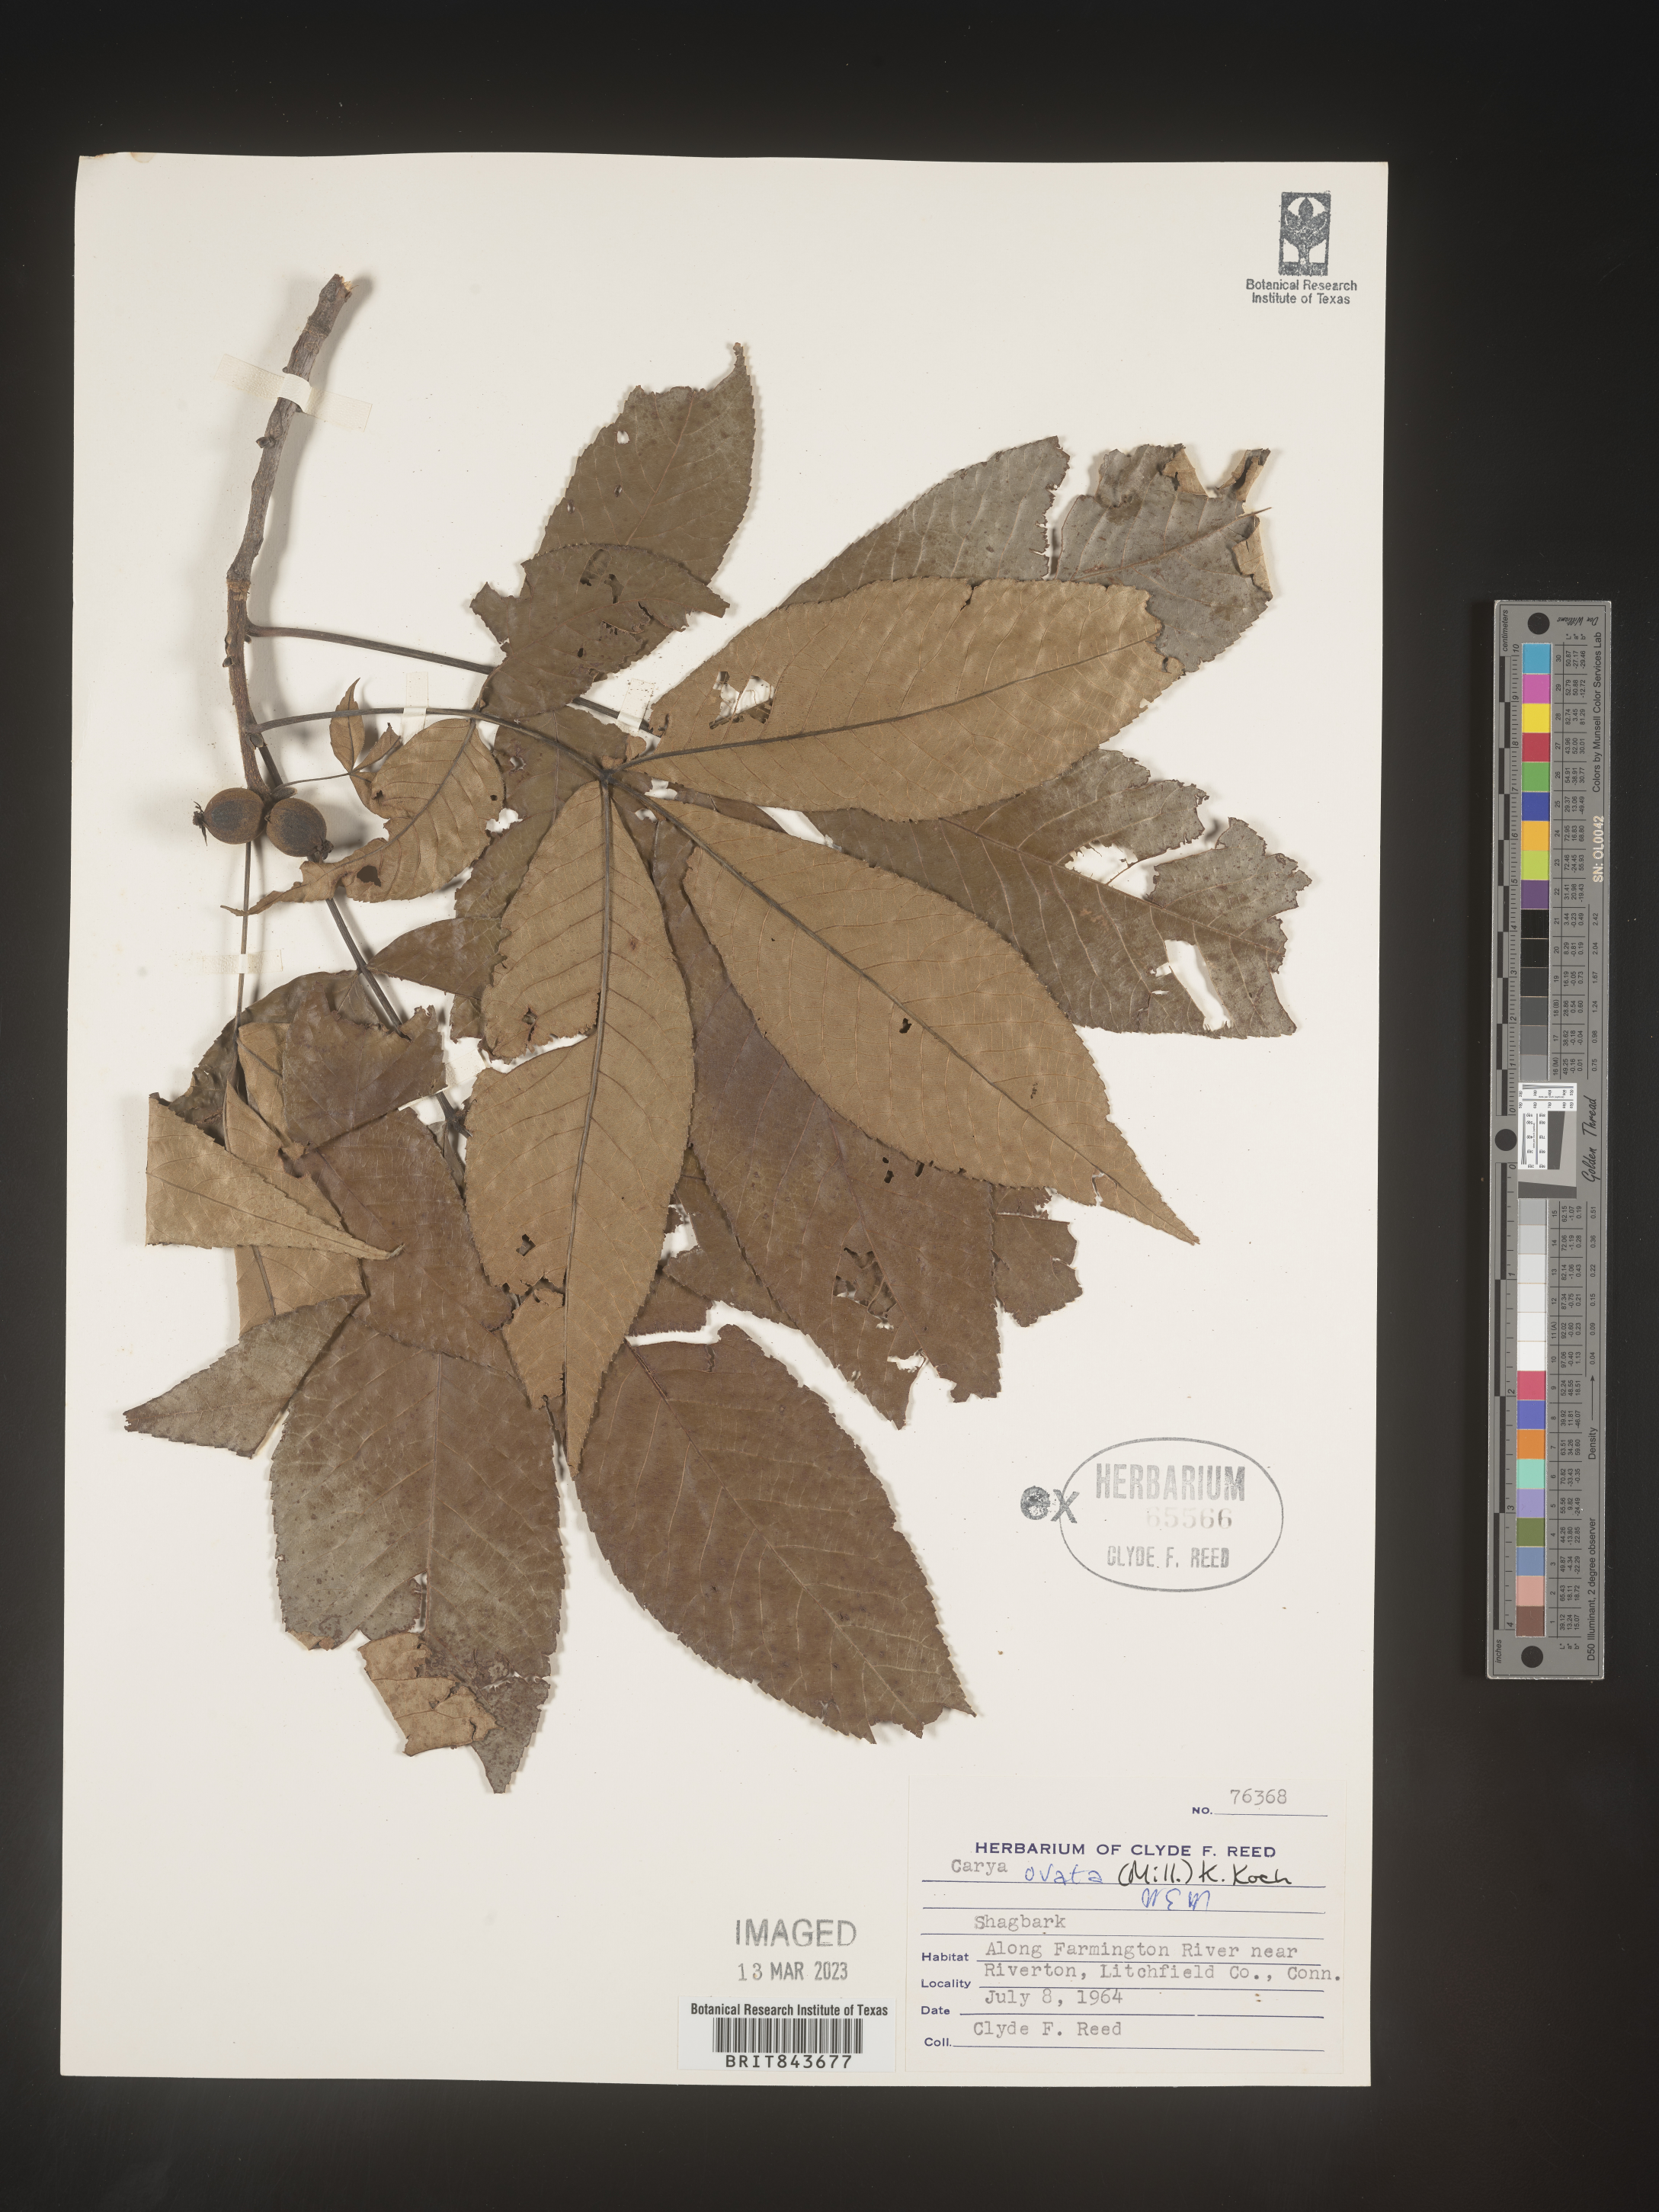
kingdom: Plantae
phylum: Tracheophyta
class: Magnoliopsida
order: Fagales
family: Juglandaceae
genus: Carya
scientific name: Carya ovata
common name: Shagbark hickory
